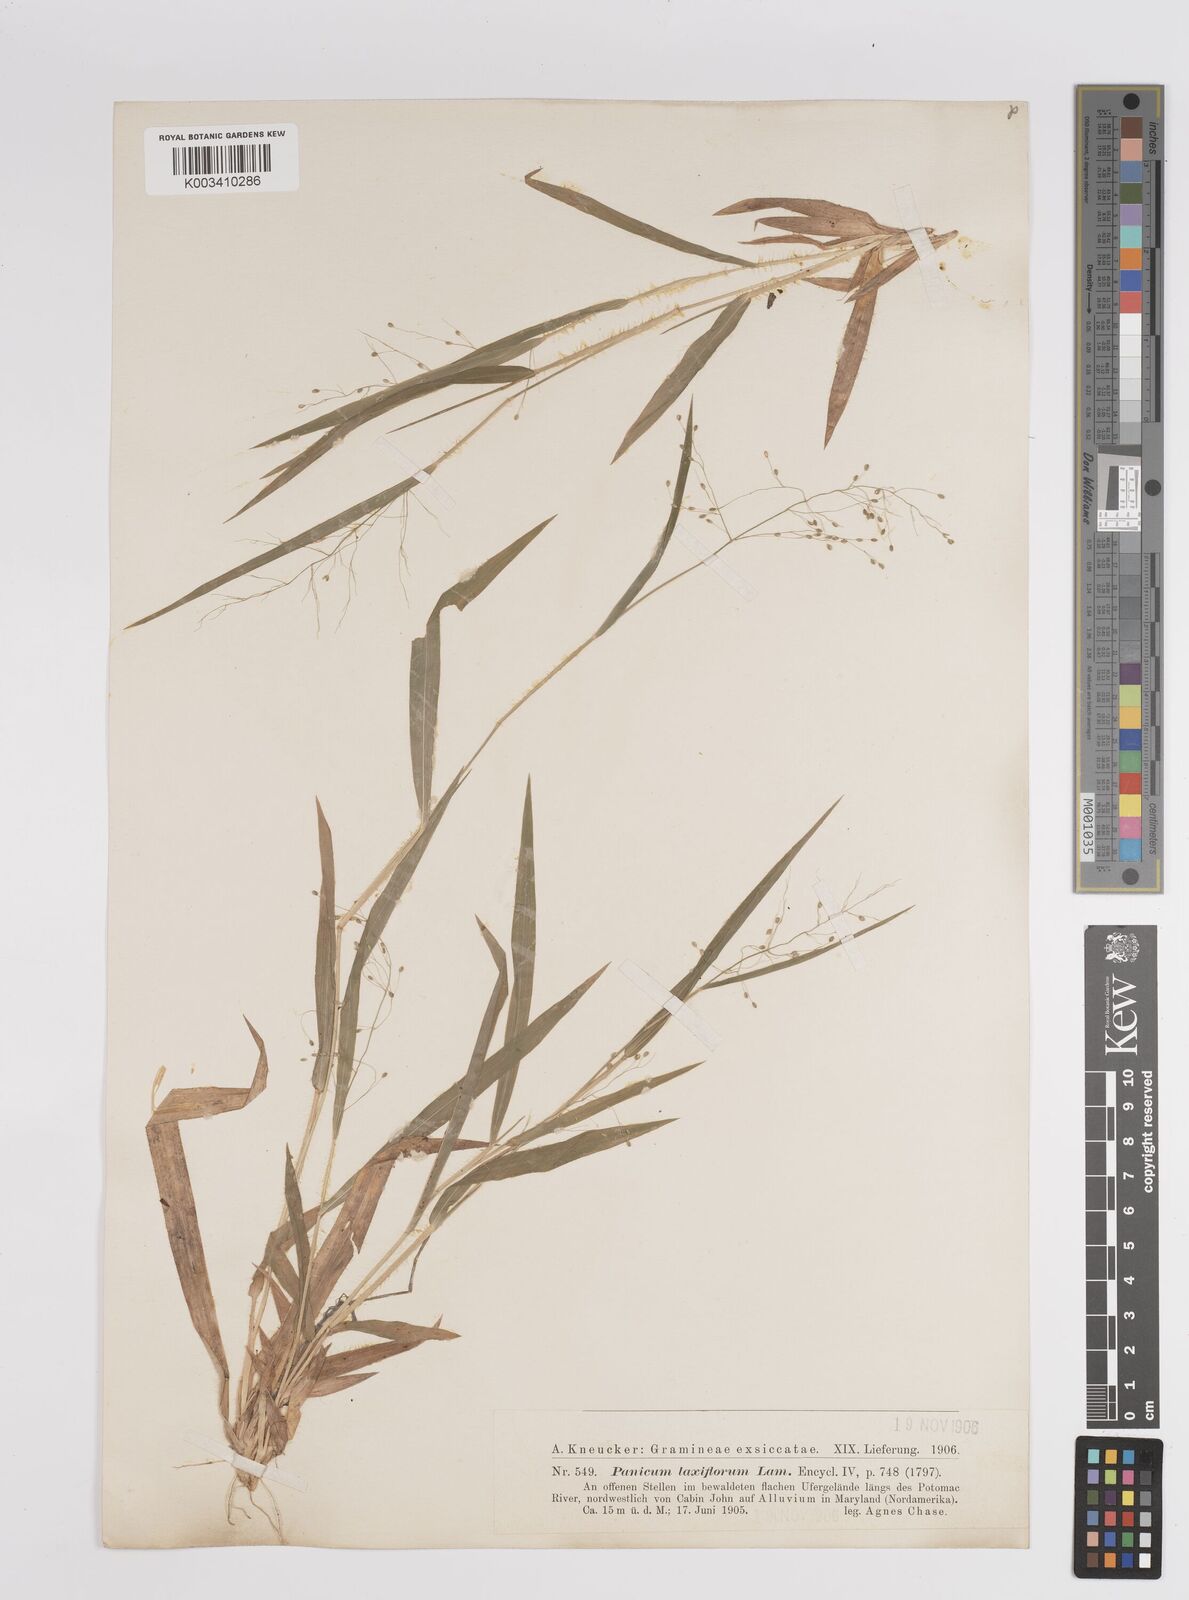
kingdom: Plantae
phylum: Tracheophyta
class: Liliopsida
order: Poales
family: Poaceae
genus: Dichanthelium
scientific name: Dichanthelium laxiflorum
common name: Soft-tuft panic grass
